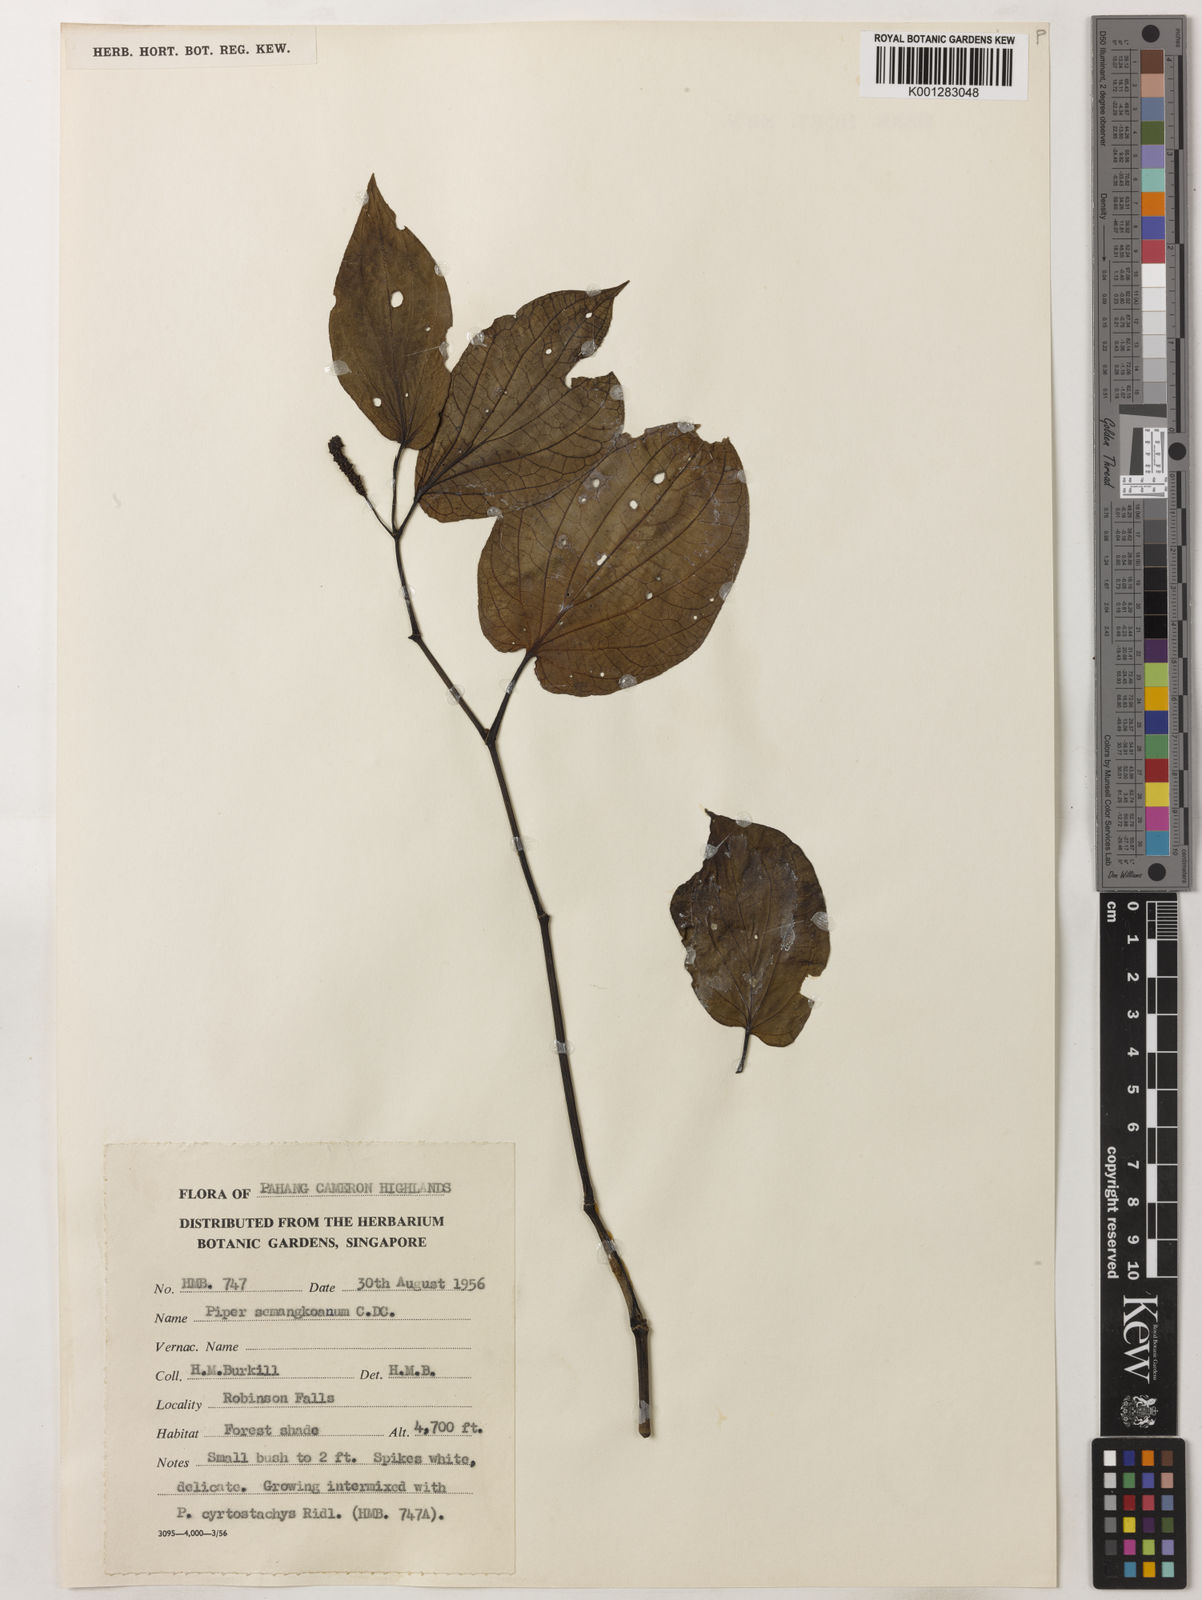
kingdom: Plantae
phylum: Tracheophyta
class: Magnoliopsida
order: Piperales
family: Piperaceae
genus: Piper
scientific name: Piper semangkoanum
